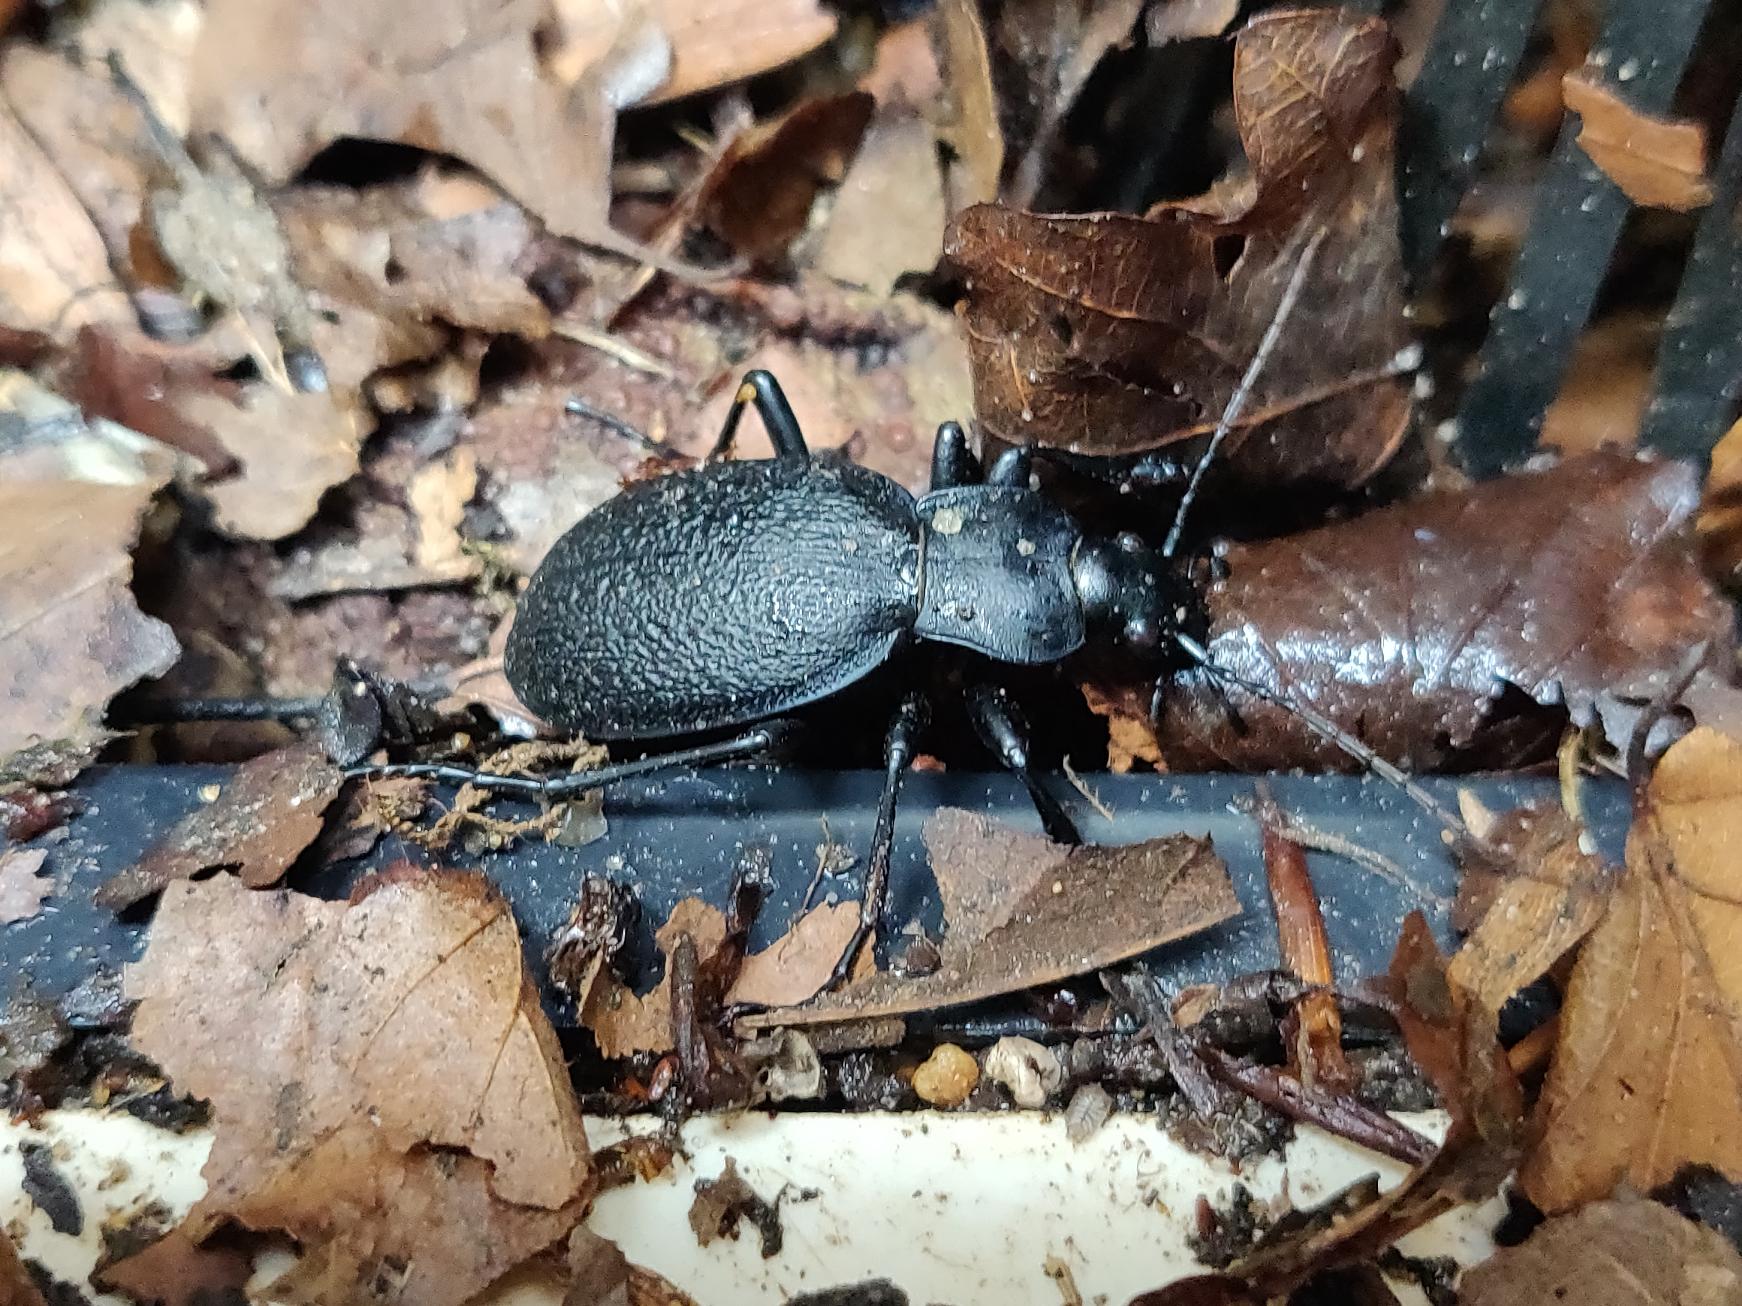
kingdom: Animalia
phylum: Arthropoda
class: Insecta
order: Coleoptera
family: Carabidae
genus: Carabus
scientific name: Carabus coriaceus
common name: Læderløber
